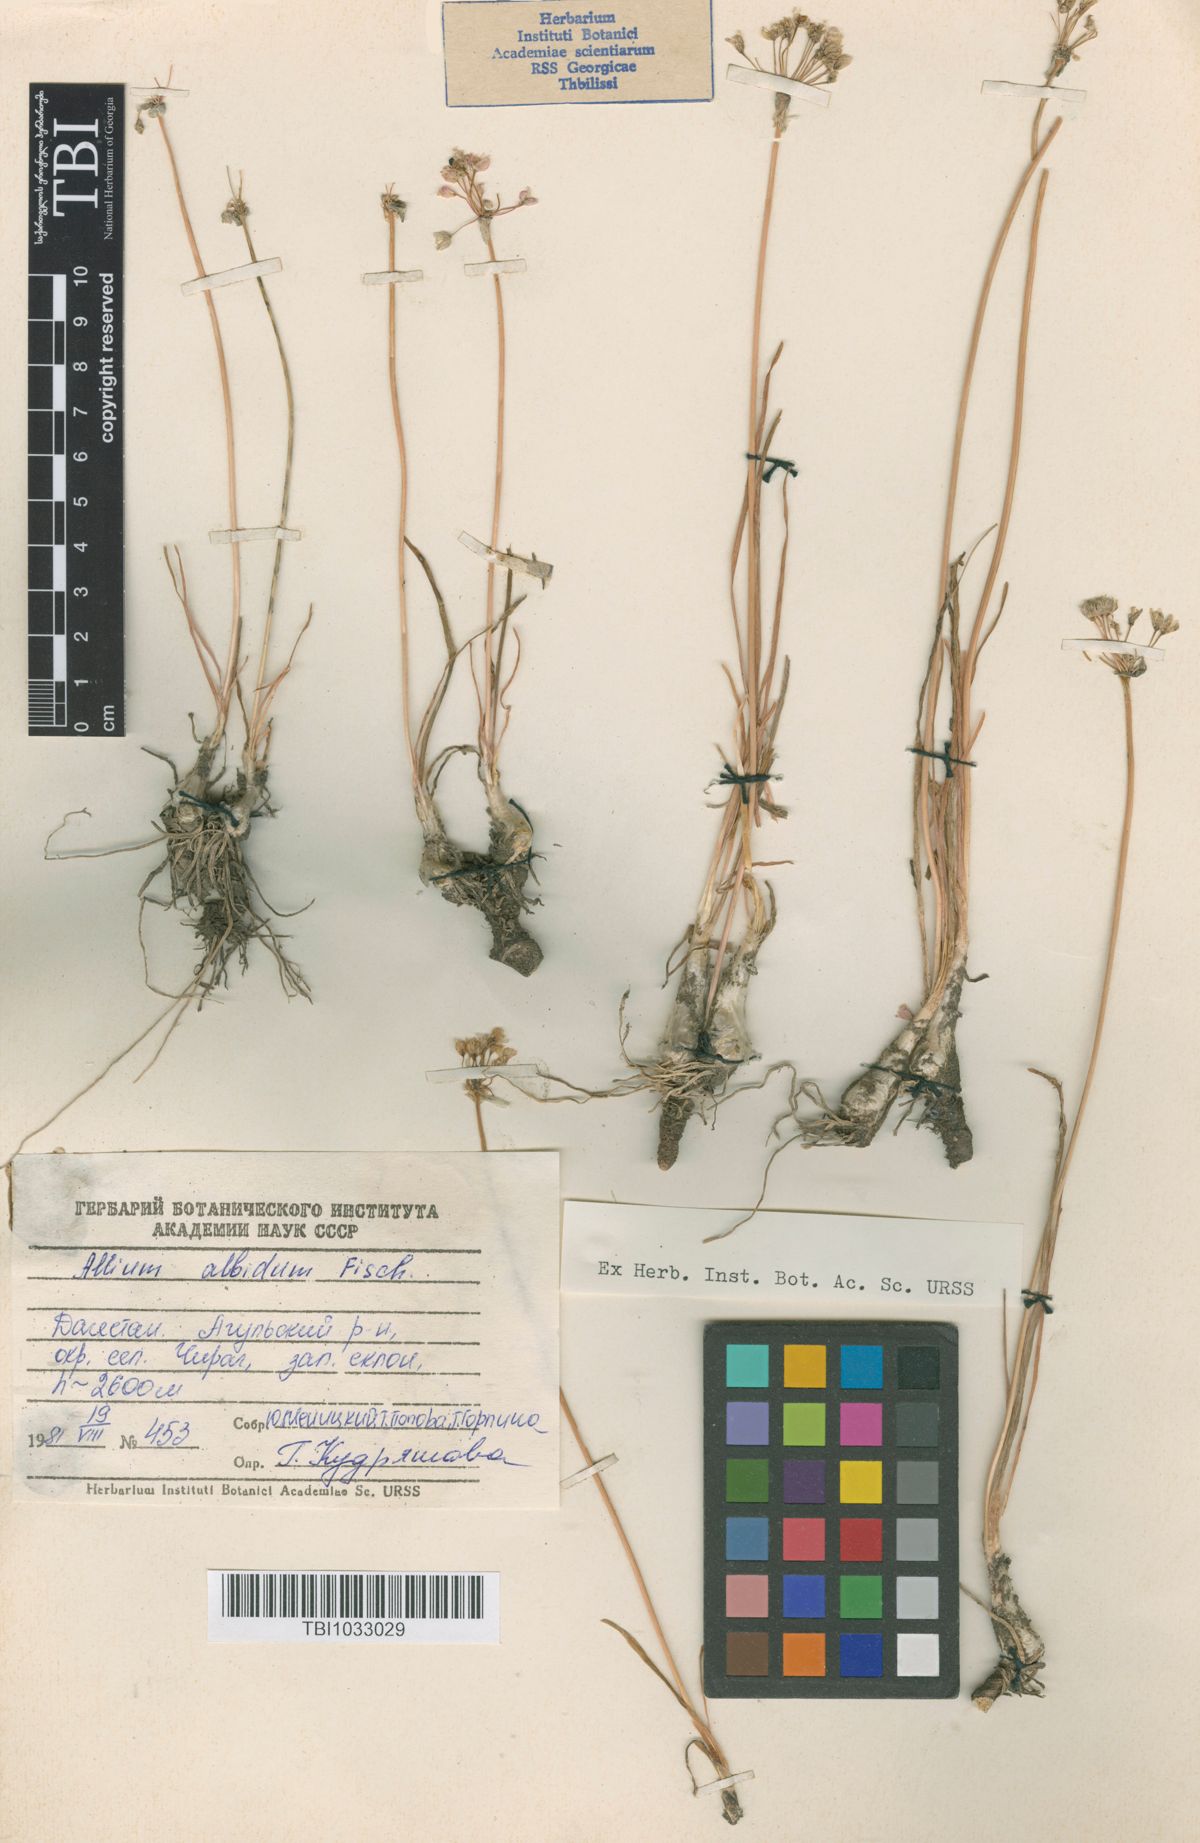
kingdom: Plantae
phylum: Tracheophyta
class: Liliopsida
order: Asparagales
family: Amaryllidaceae
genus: Allium
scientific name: Allium denudatum
